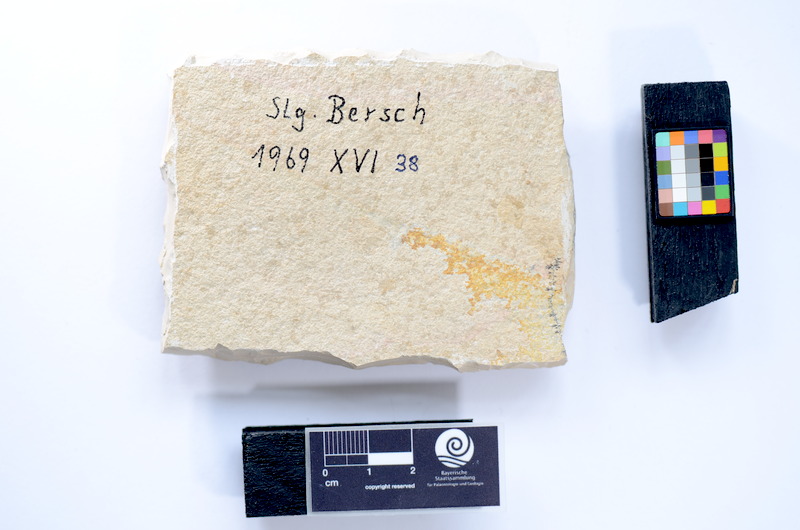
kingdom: Animalia
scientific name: Animalia
